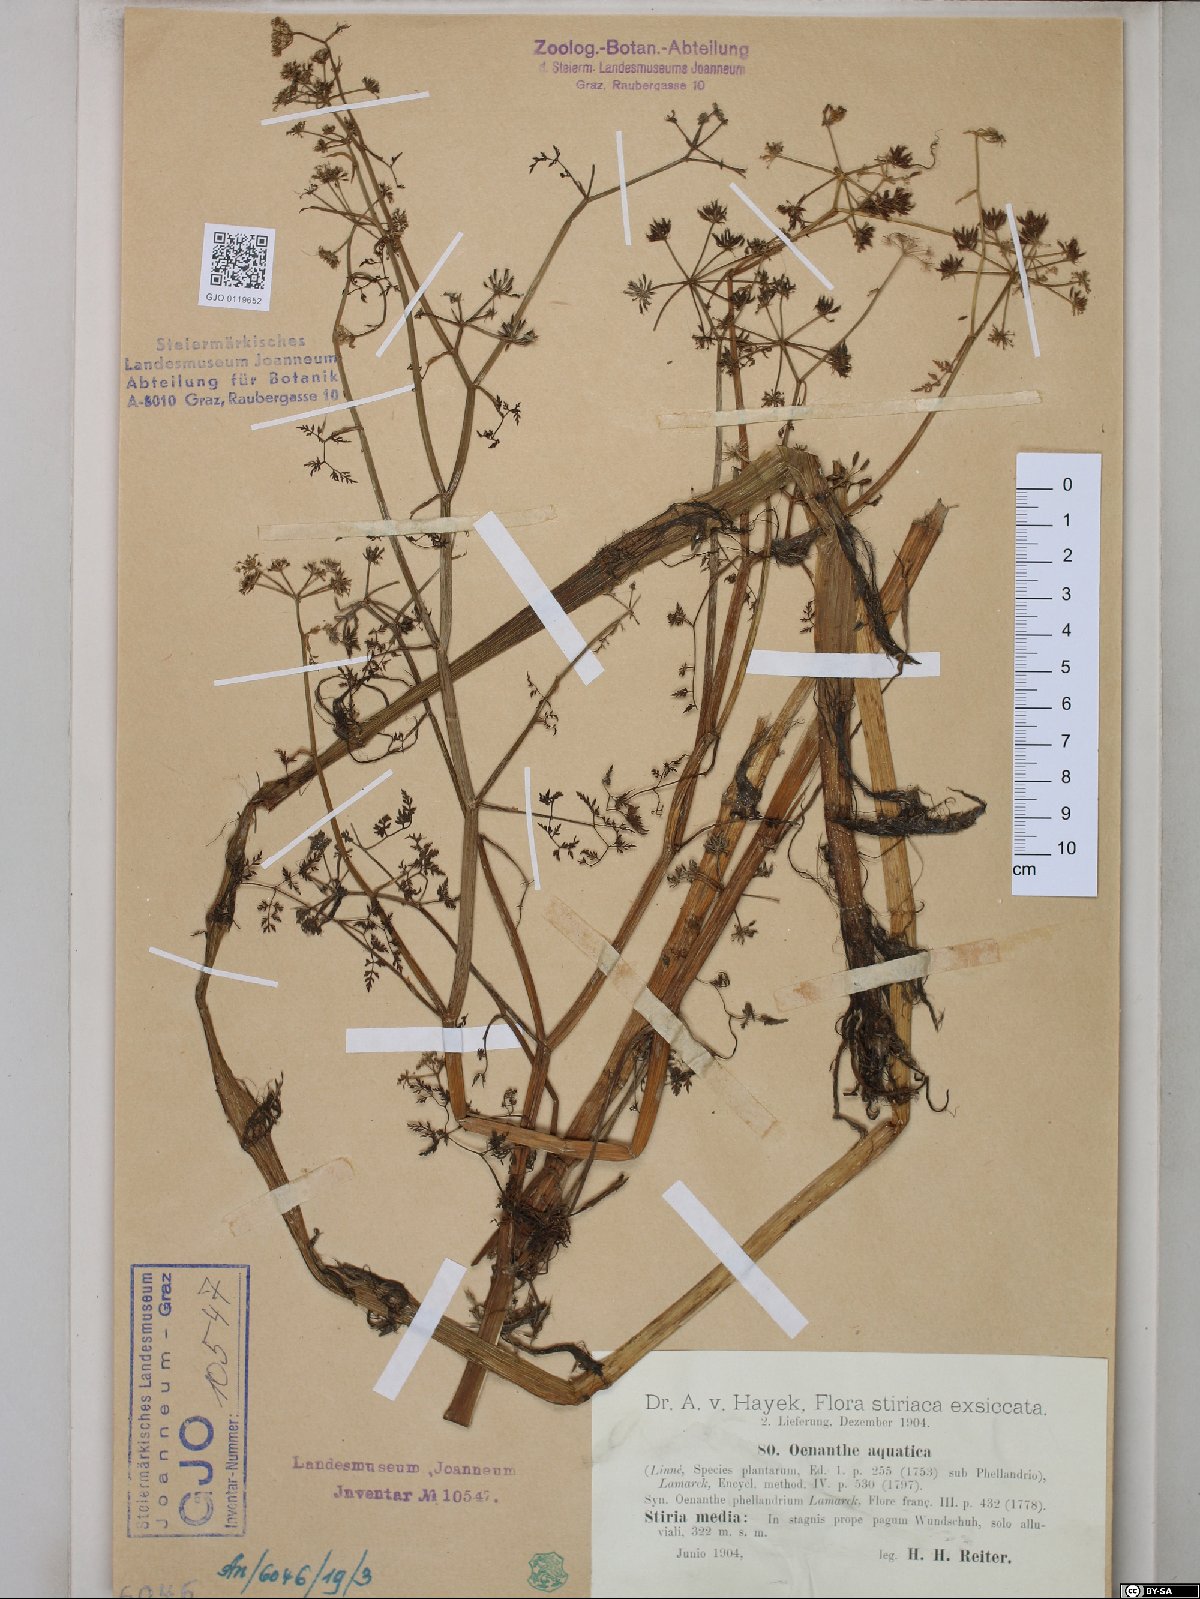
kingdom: Plantae
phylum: Tracheophyta
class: Magnoliopsida
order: Apiales
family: Apiaceae
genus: Oenanthe
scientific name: Oenanthe aquatica
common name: Fine-leaved water-dropwort
